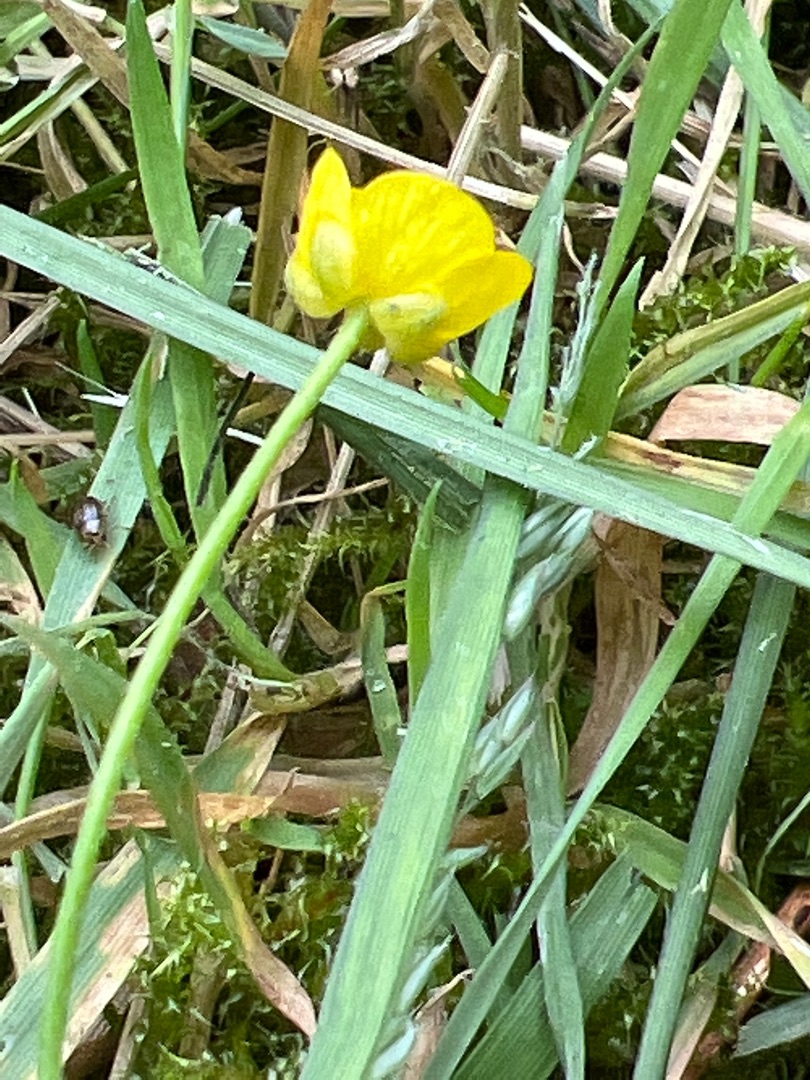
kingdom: Plantae
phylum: Tracheophyta
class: Magnoliopsida
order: Ranunculales
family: Ranunculaceae
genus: Ranunculus
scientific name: Ranunculus flammula
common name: Kær-ranunkel
